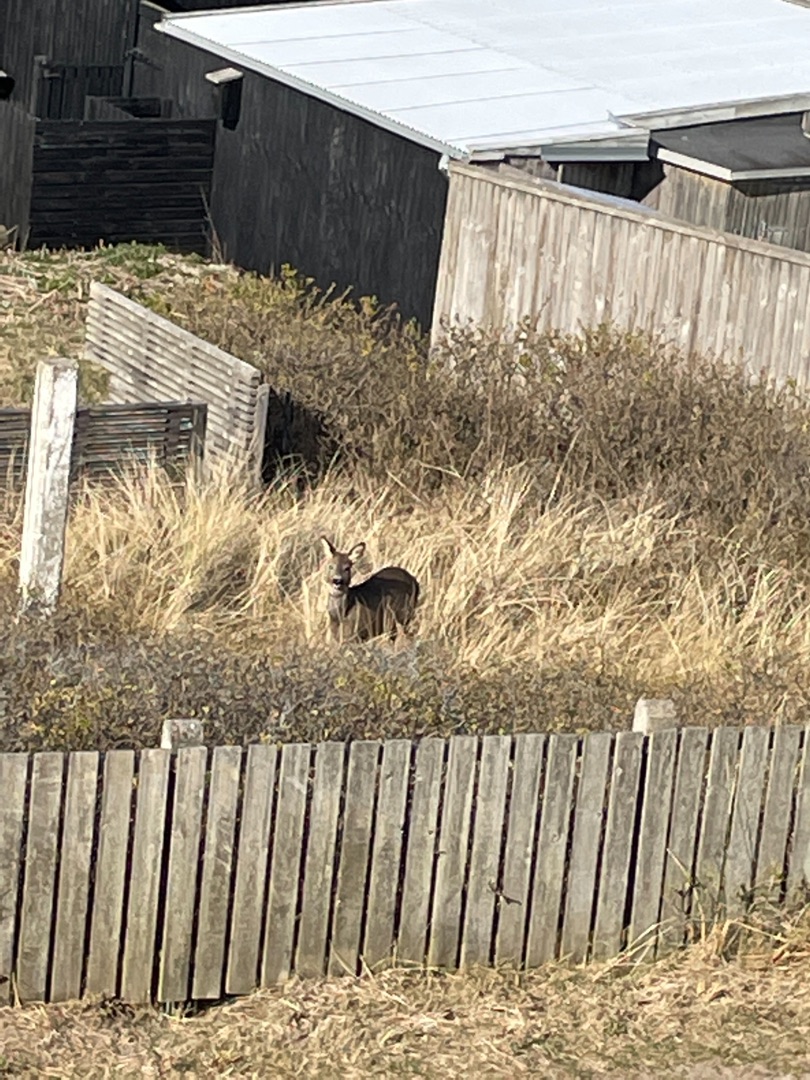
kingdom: Animalia
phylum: Chordata
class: Mammalia
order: Artiodactyla
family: Cervidae
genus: Capreolus
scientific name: Capreolus capreolus
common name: Rådyr
